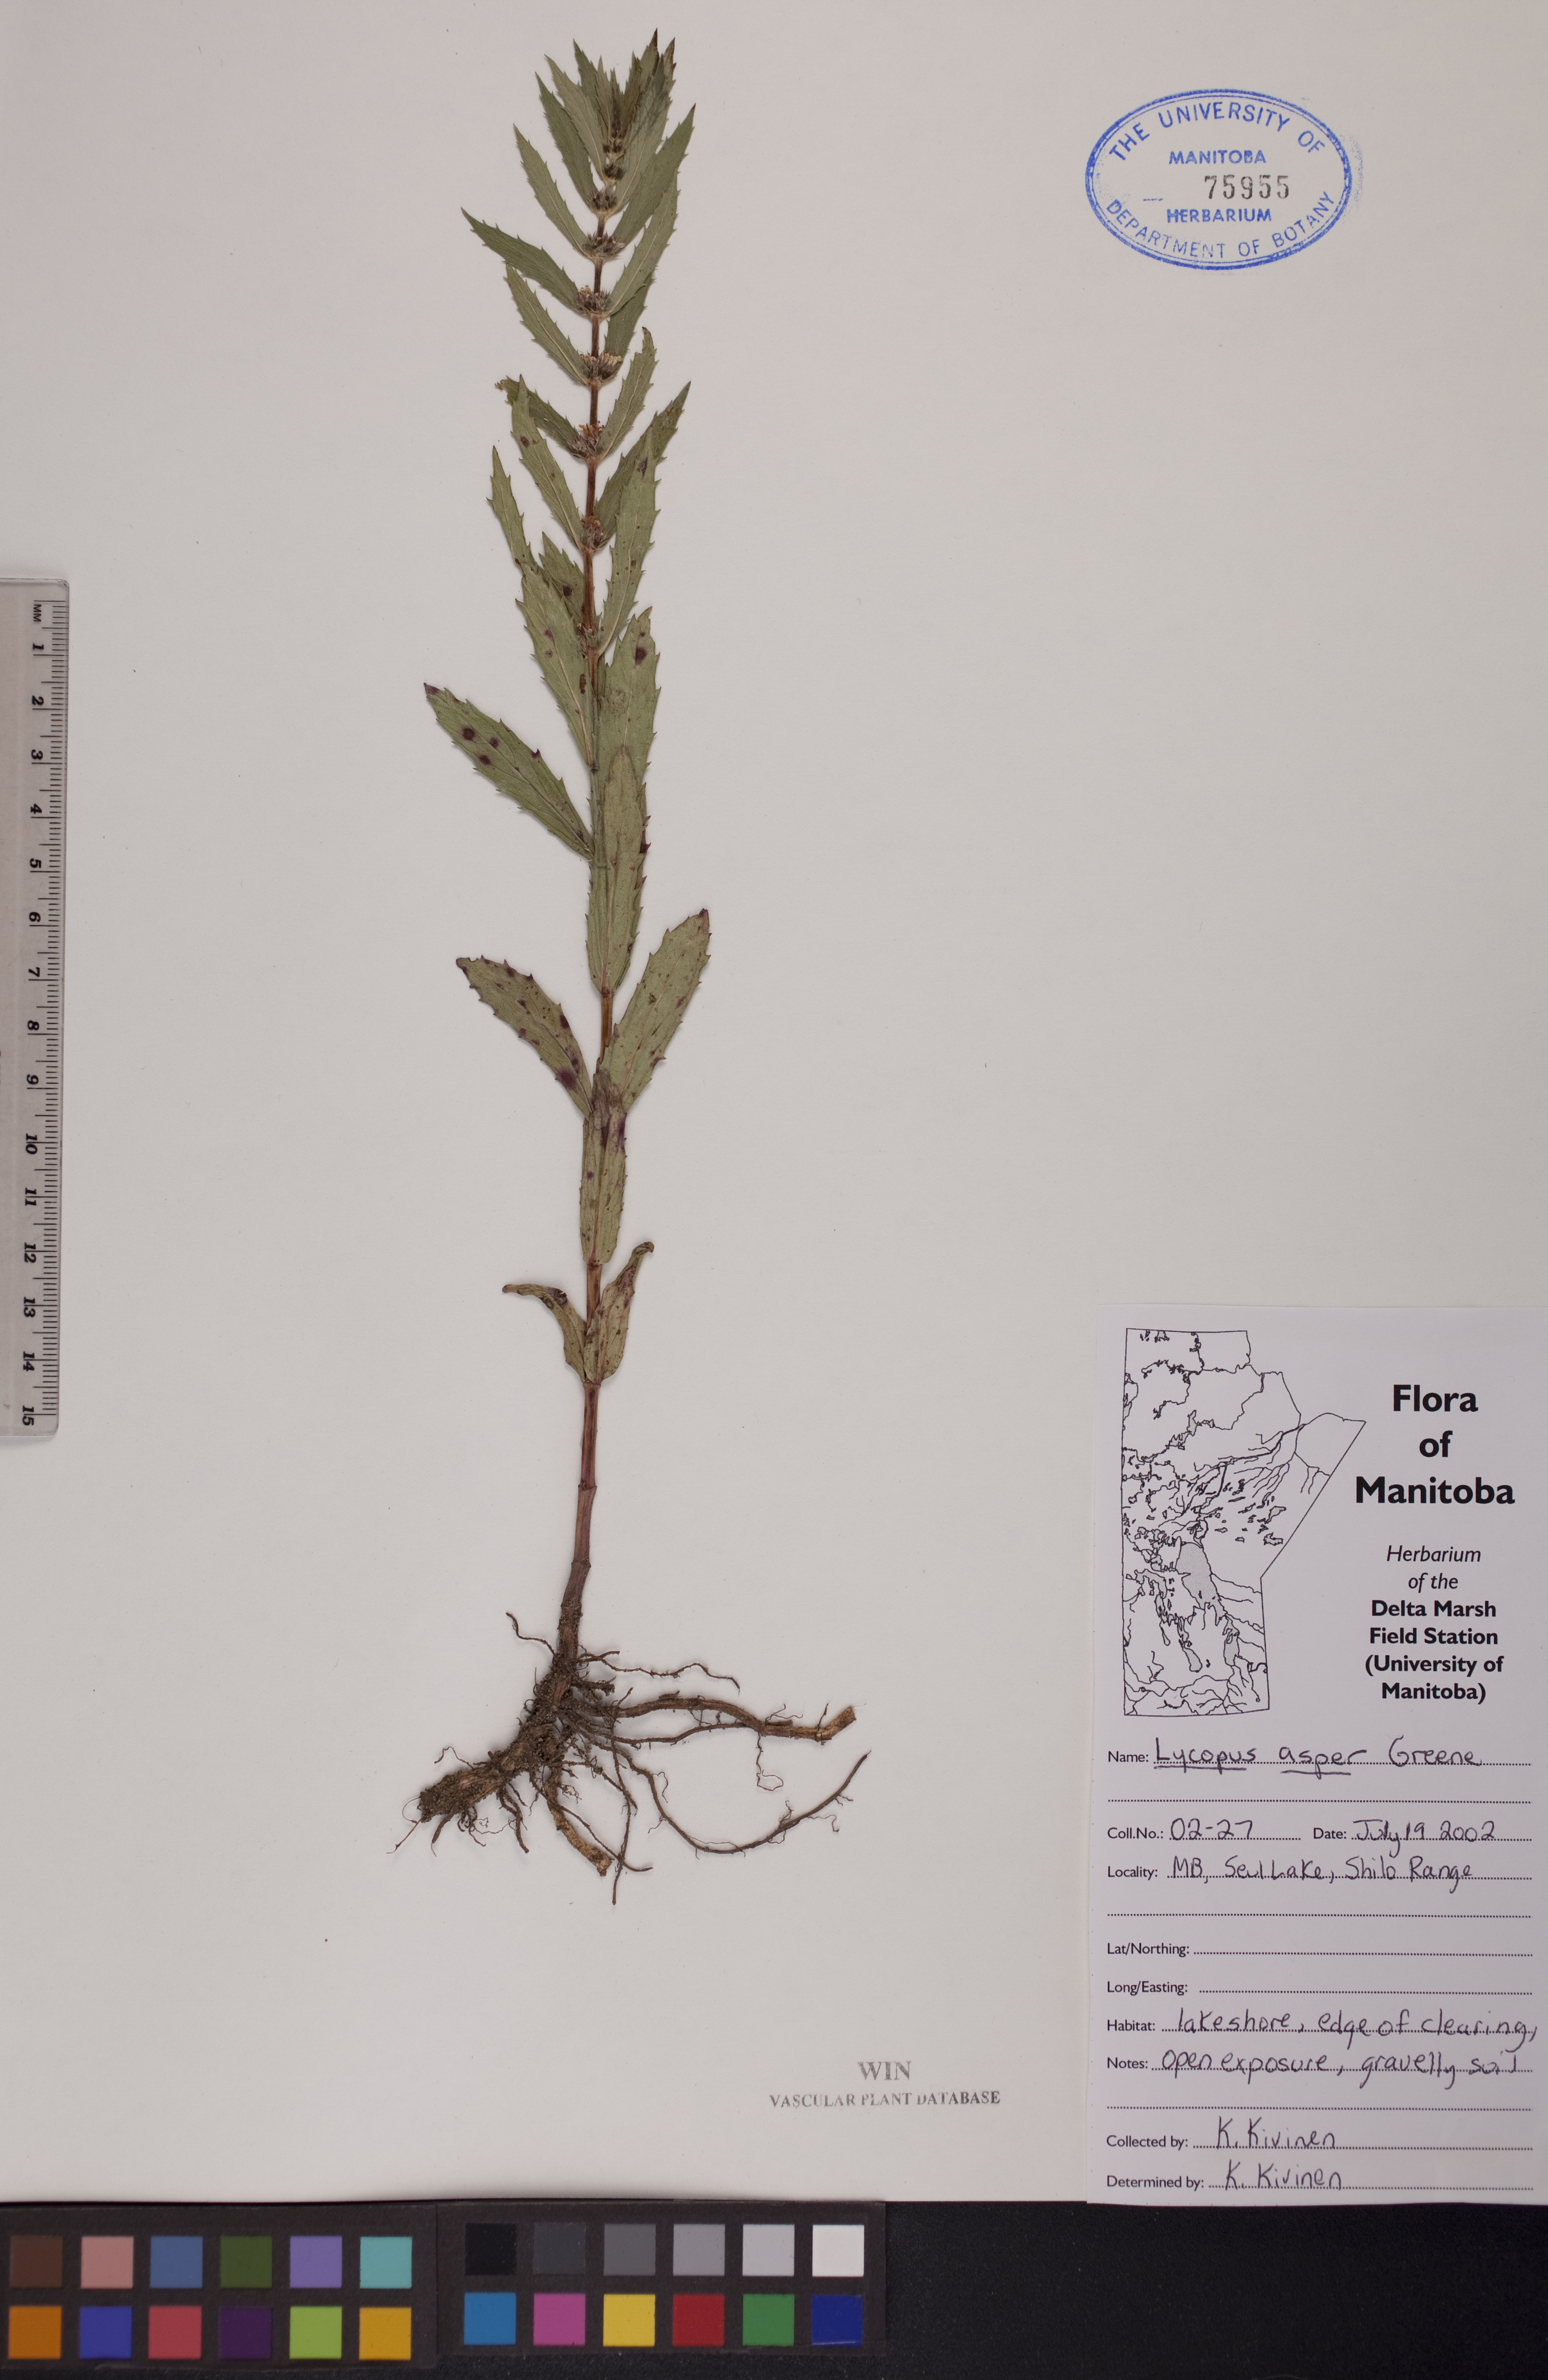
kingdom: Plantae
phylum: Tracheophyta
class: Magnoliopsida
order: Lamiales
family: Lamiaceae
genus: Lycopus
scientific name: Lycopus asper
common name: Rough water-horehound
